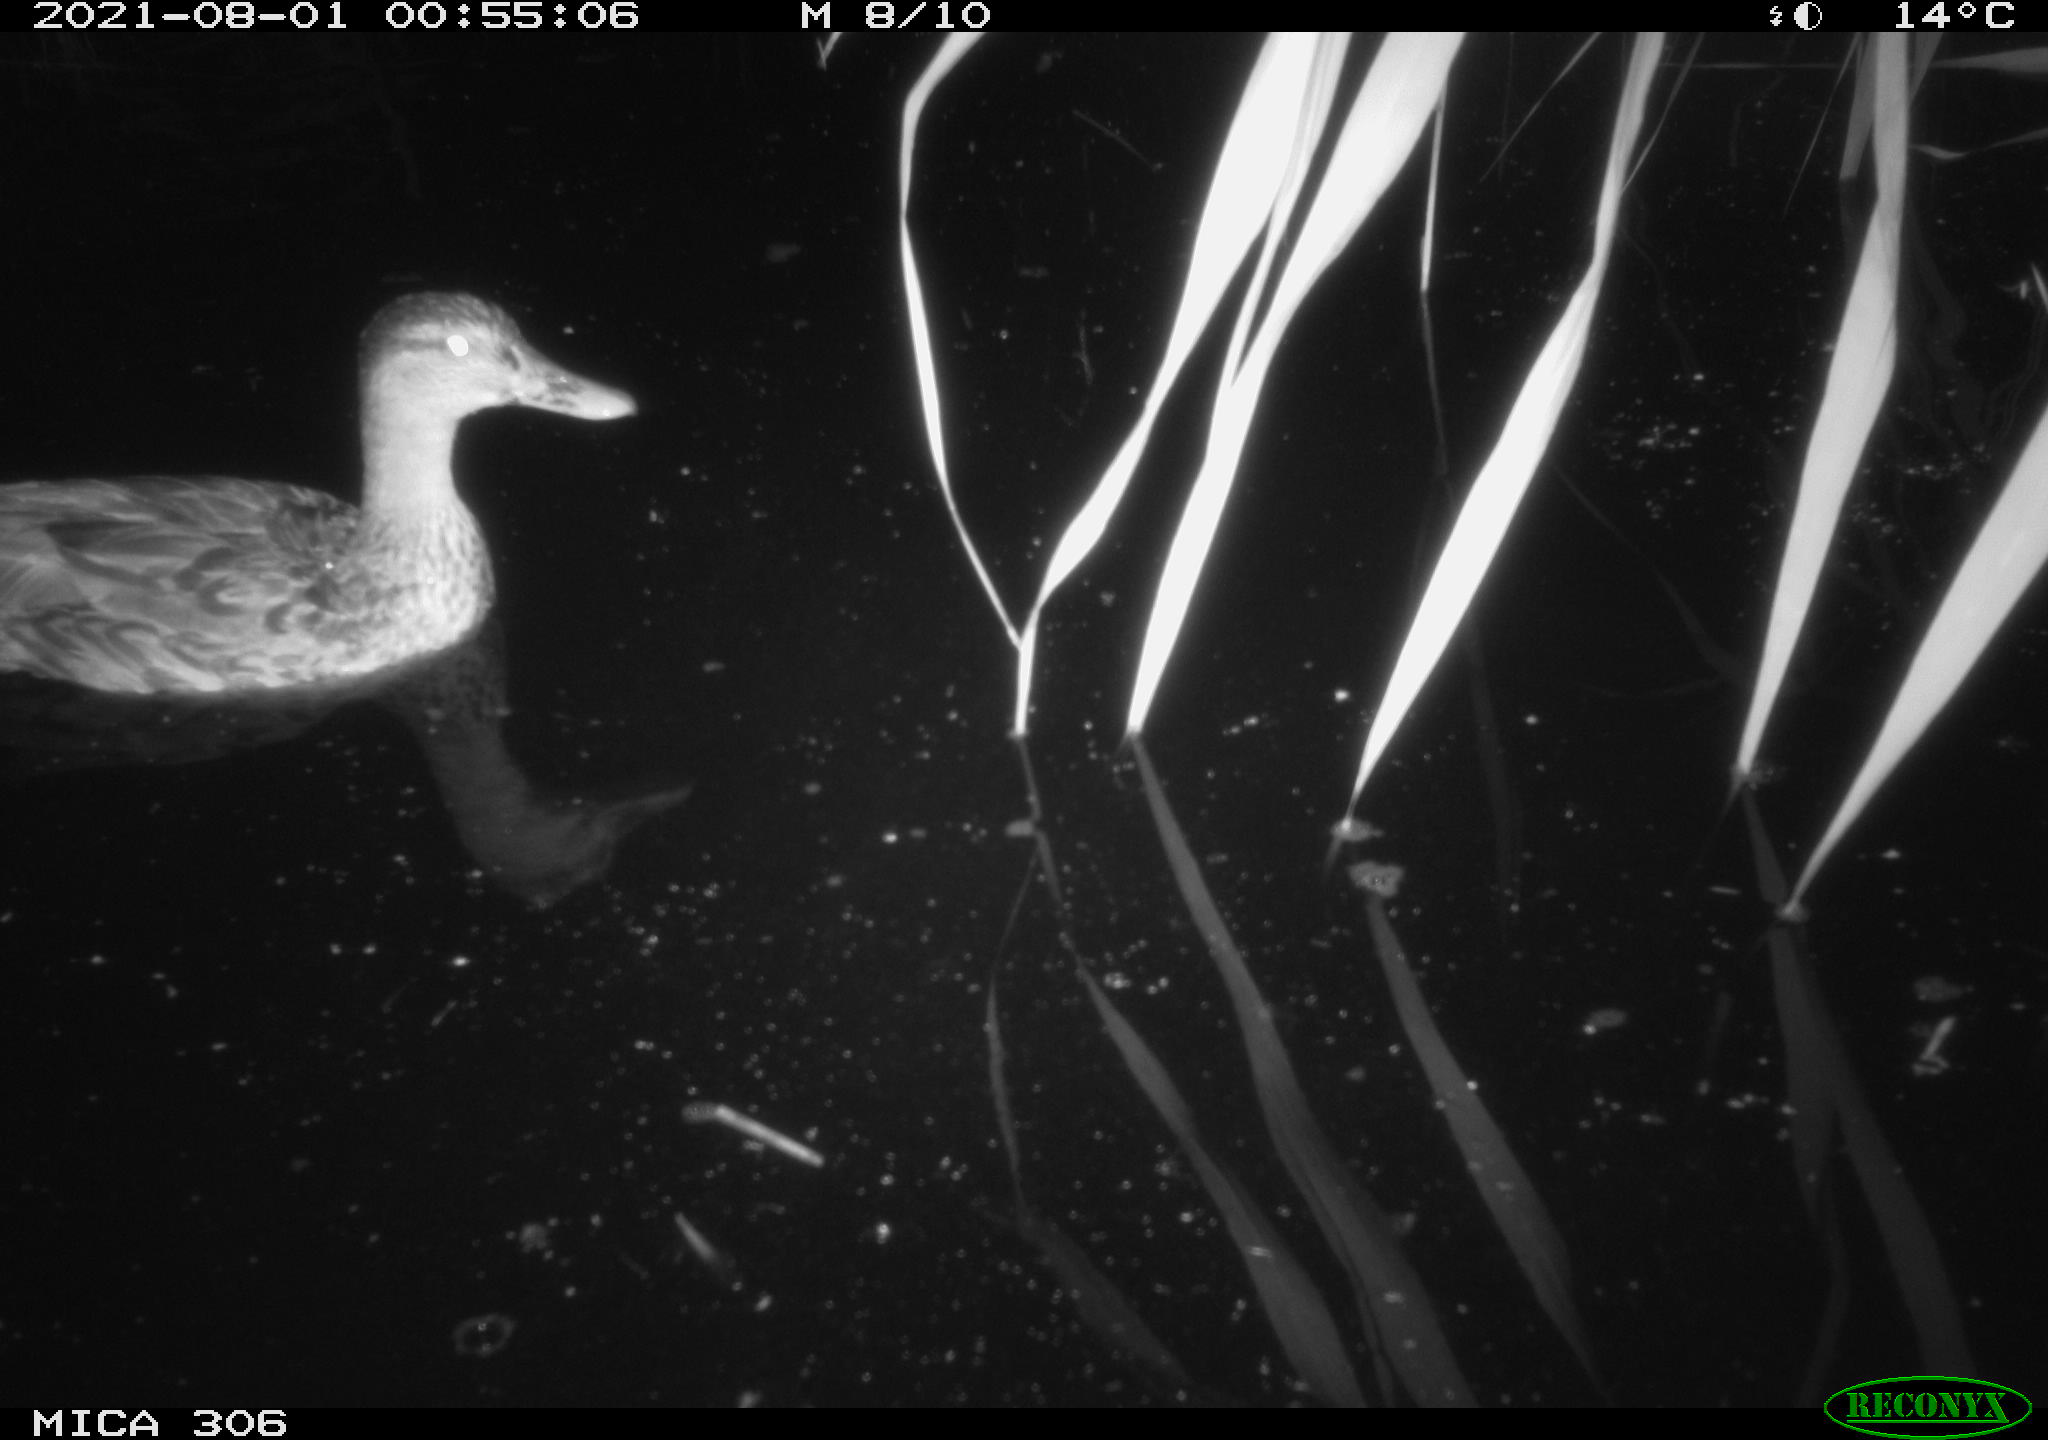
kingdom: Animalia
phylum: Chordata
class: Aves
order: Anseriformes
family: Anatidae
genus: Anas
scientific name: Anas
